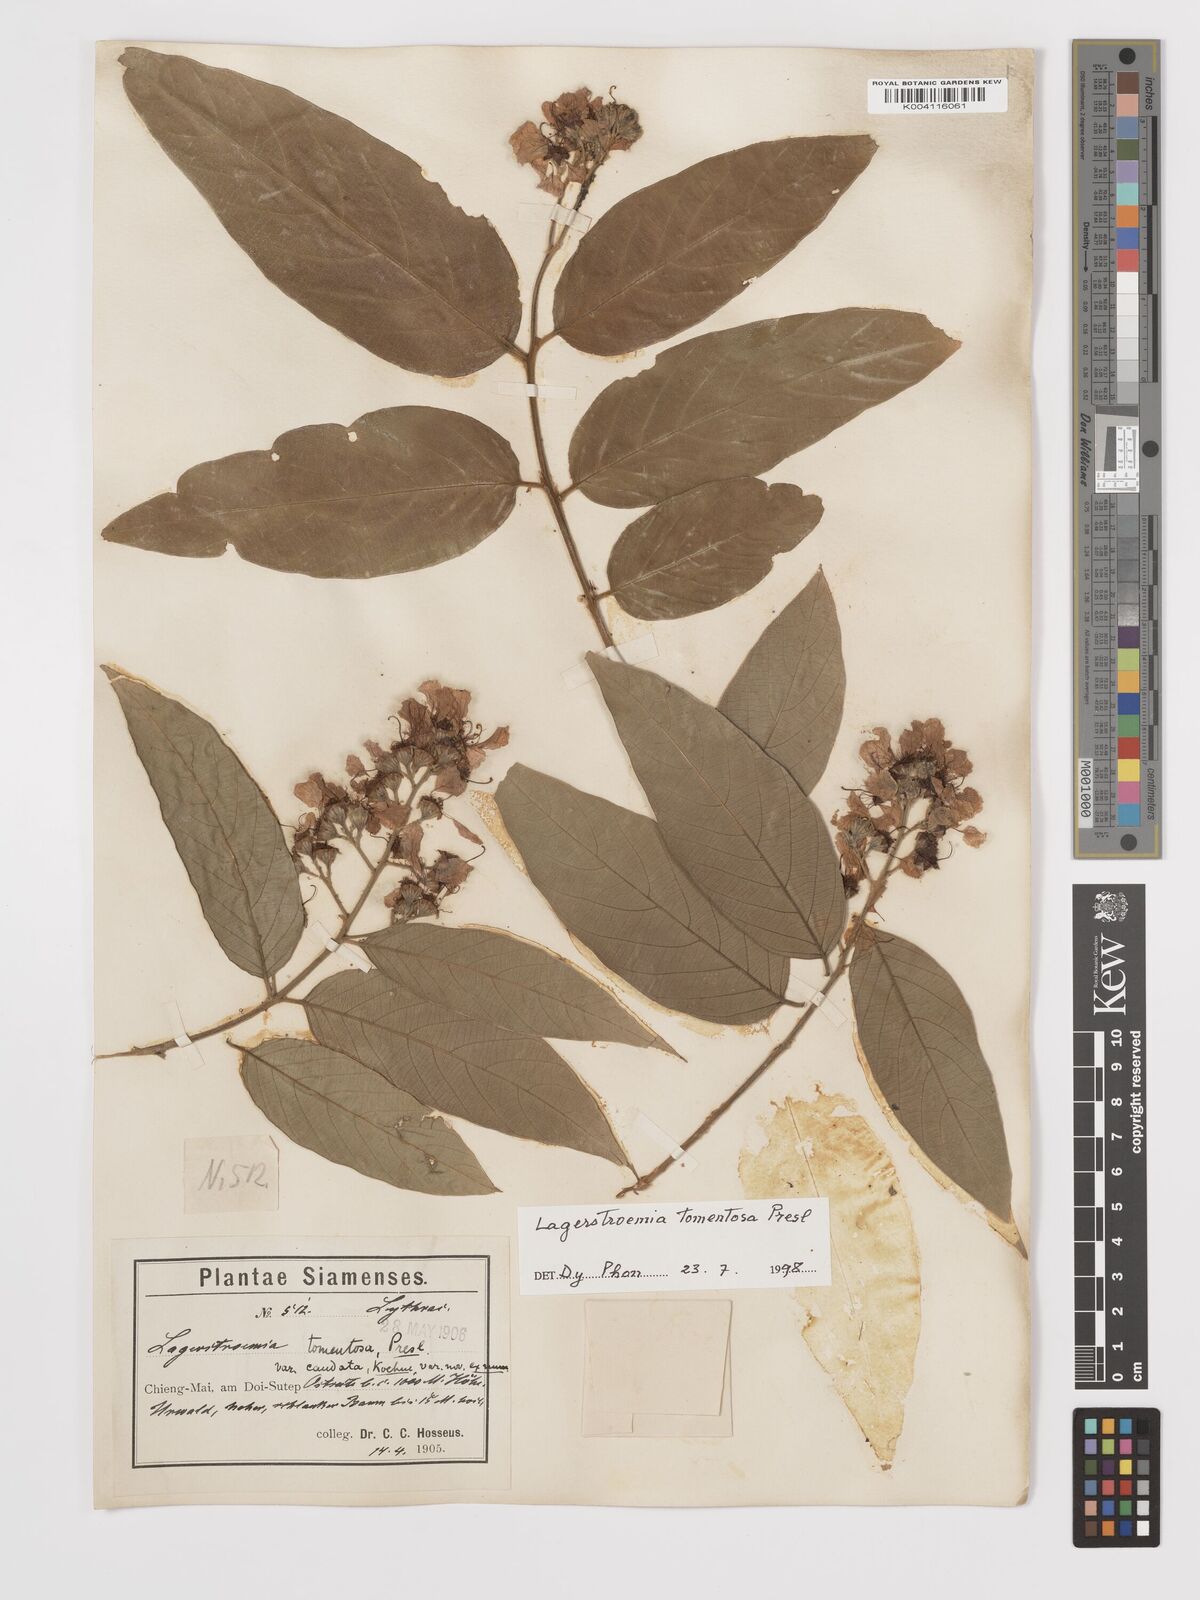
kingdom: Plantae
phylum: Tracheophyta
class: Magnoliopsida
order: Myrtales
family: Lythraceae
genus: Lagerstroemia
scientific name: Lagerstroemia tomentosa
